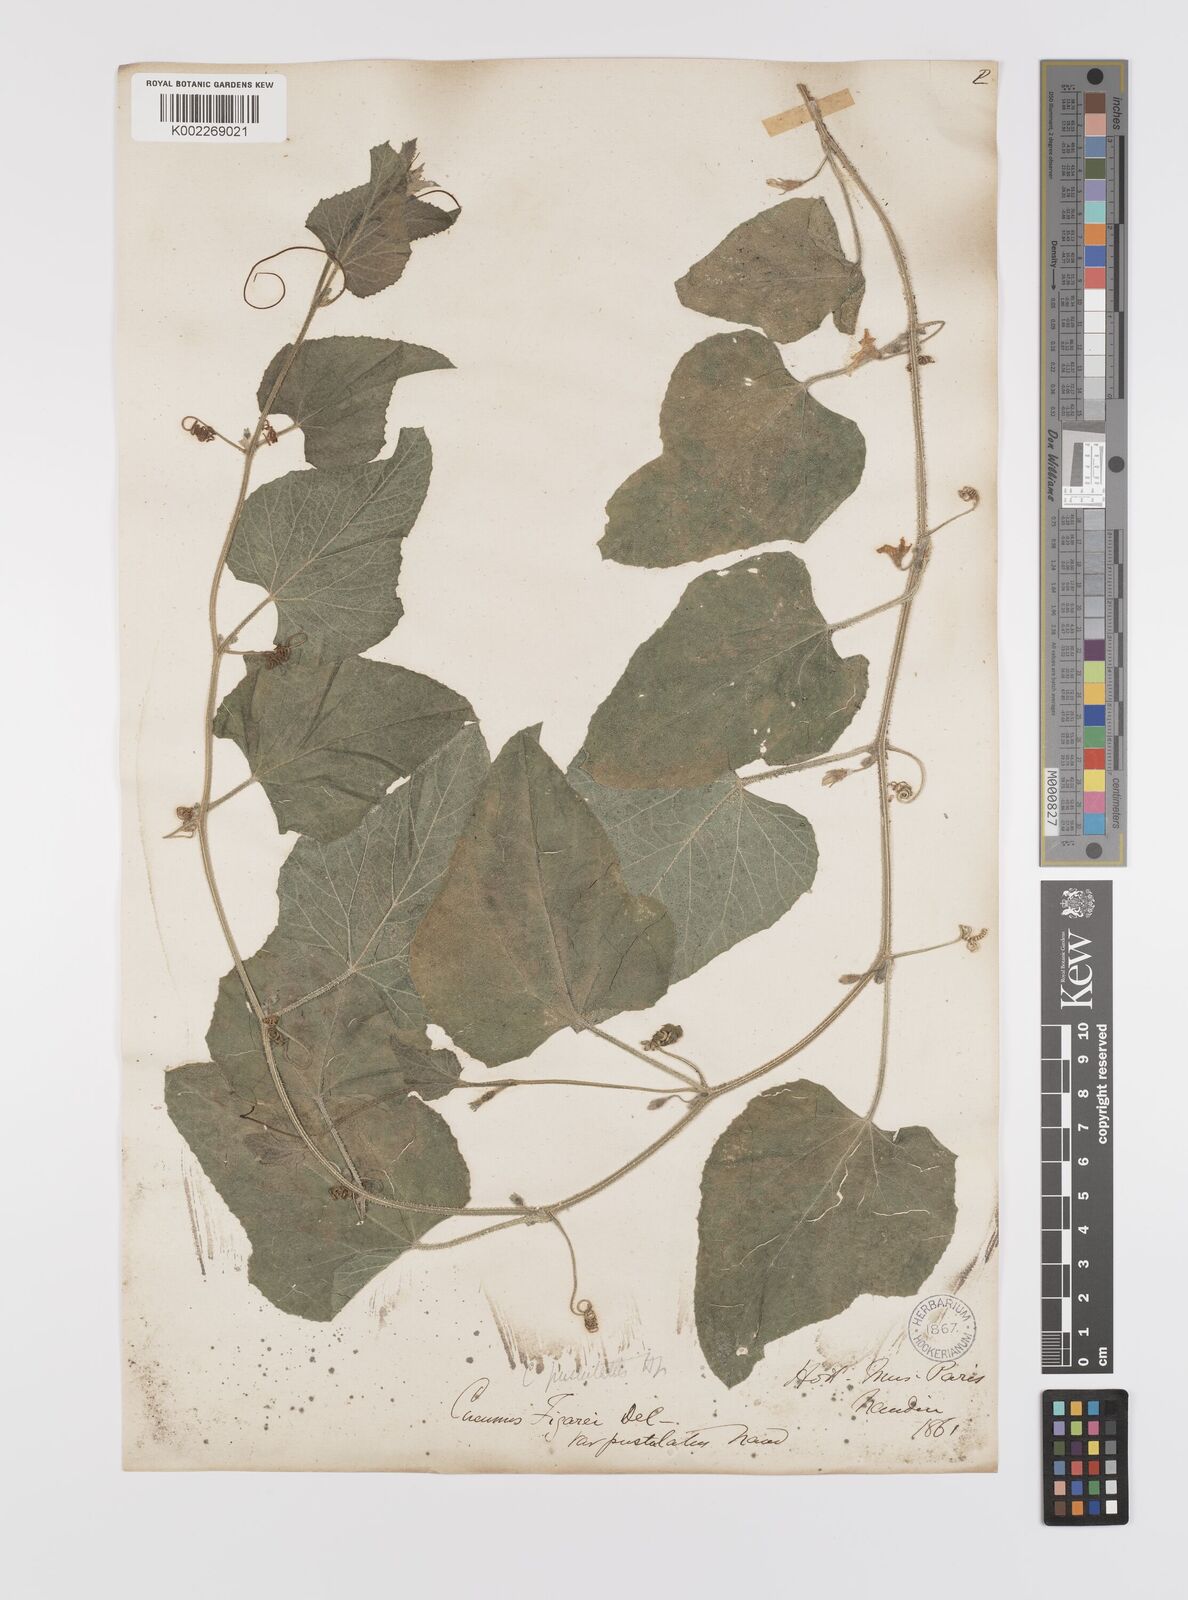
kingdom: Plantae
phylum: Tracheophyta
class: Magnoliopsida
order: Cucurbitales
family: Cucurbitaceae
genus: Cucumis
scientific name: Cucumis pustulatus
